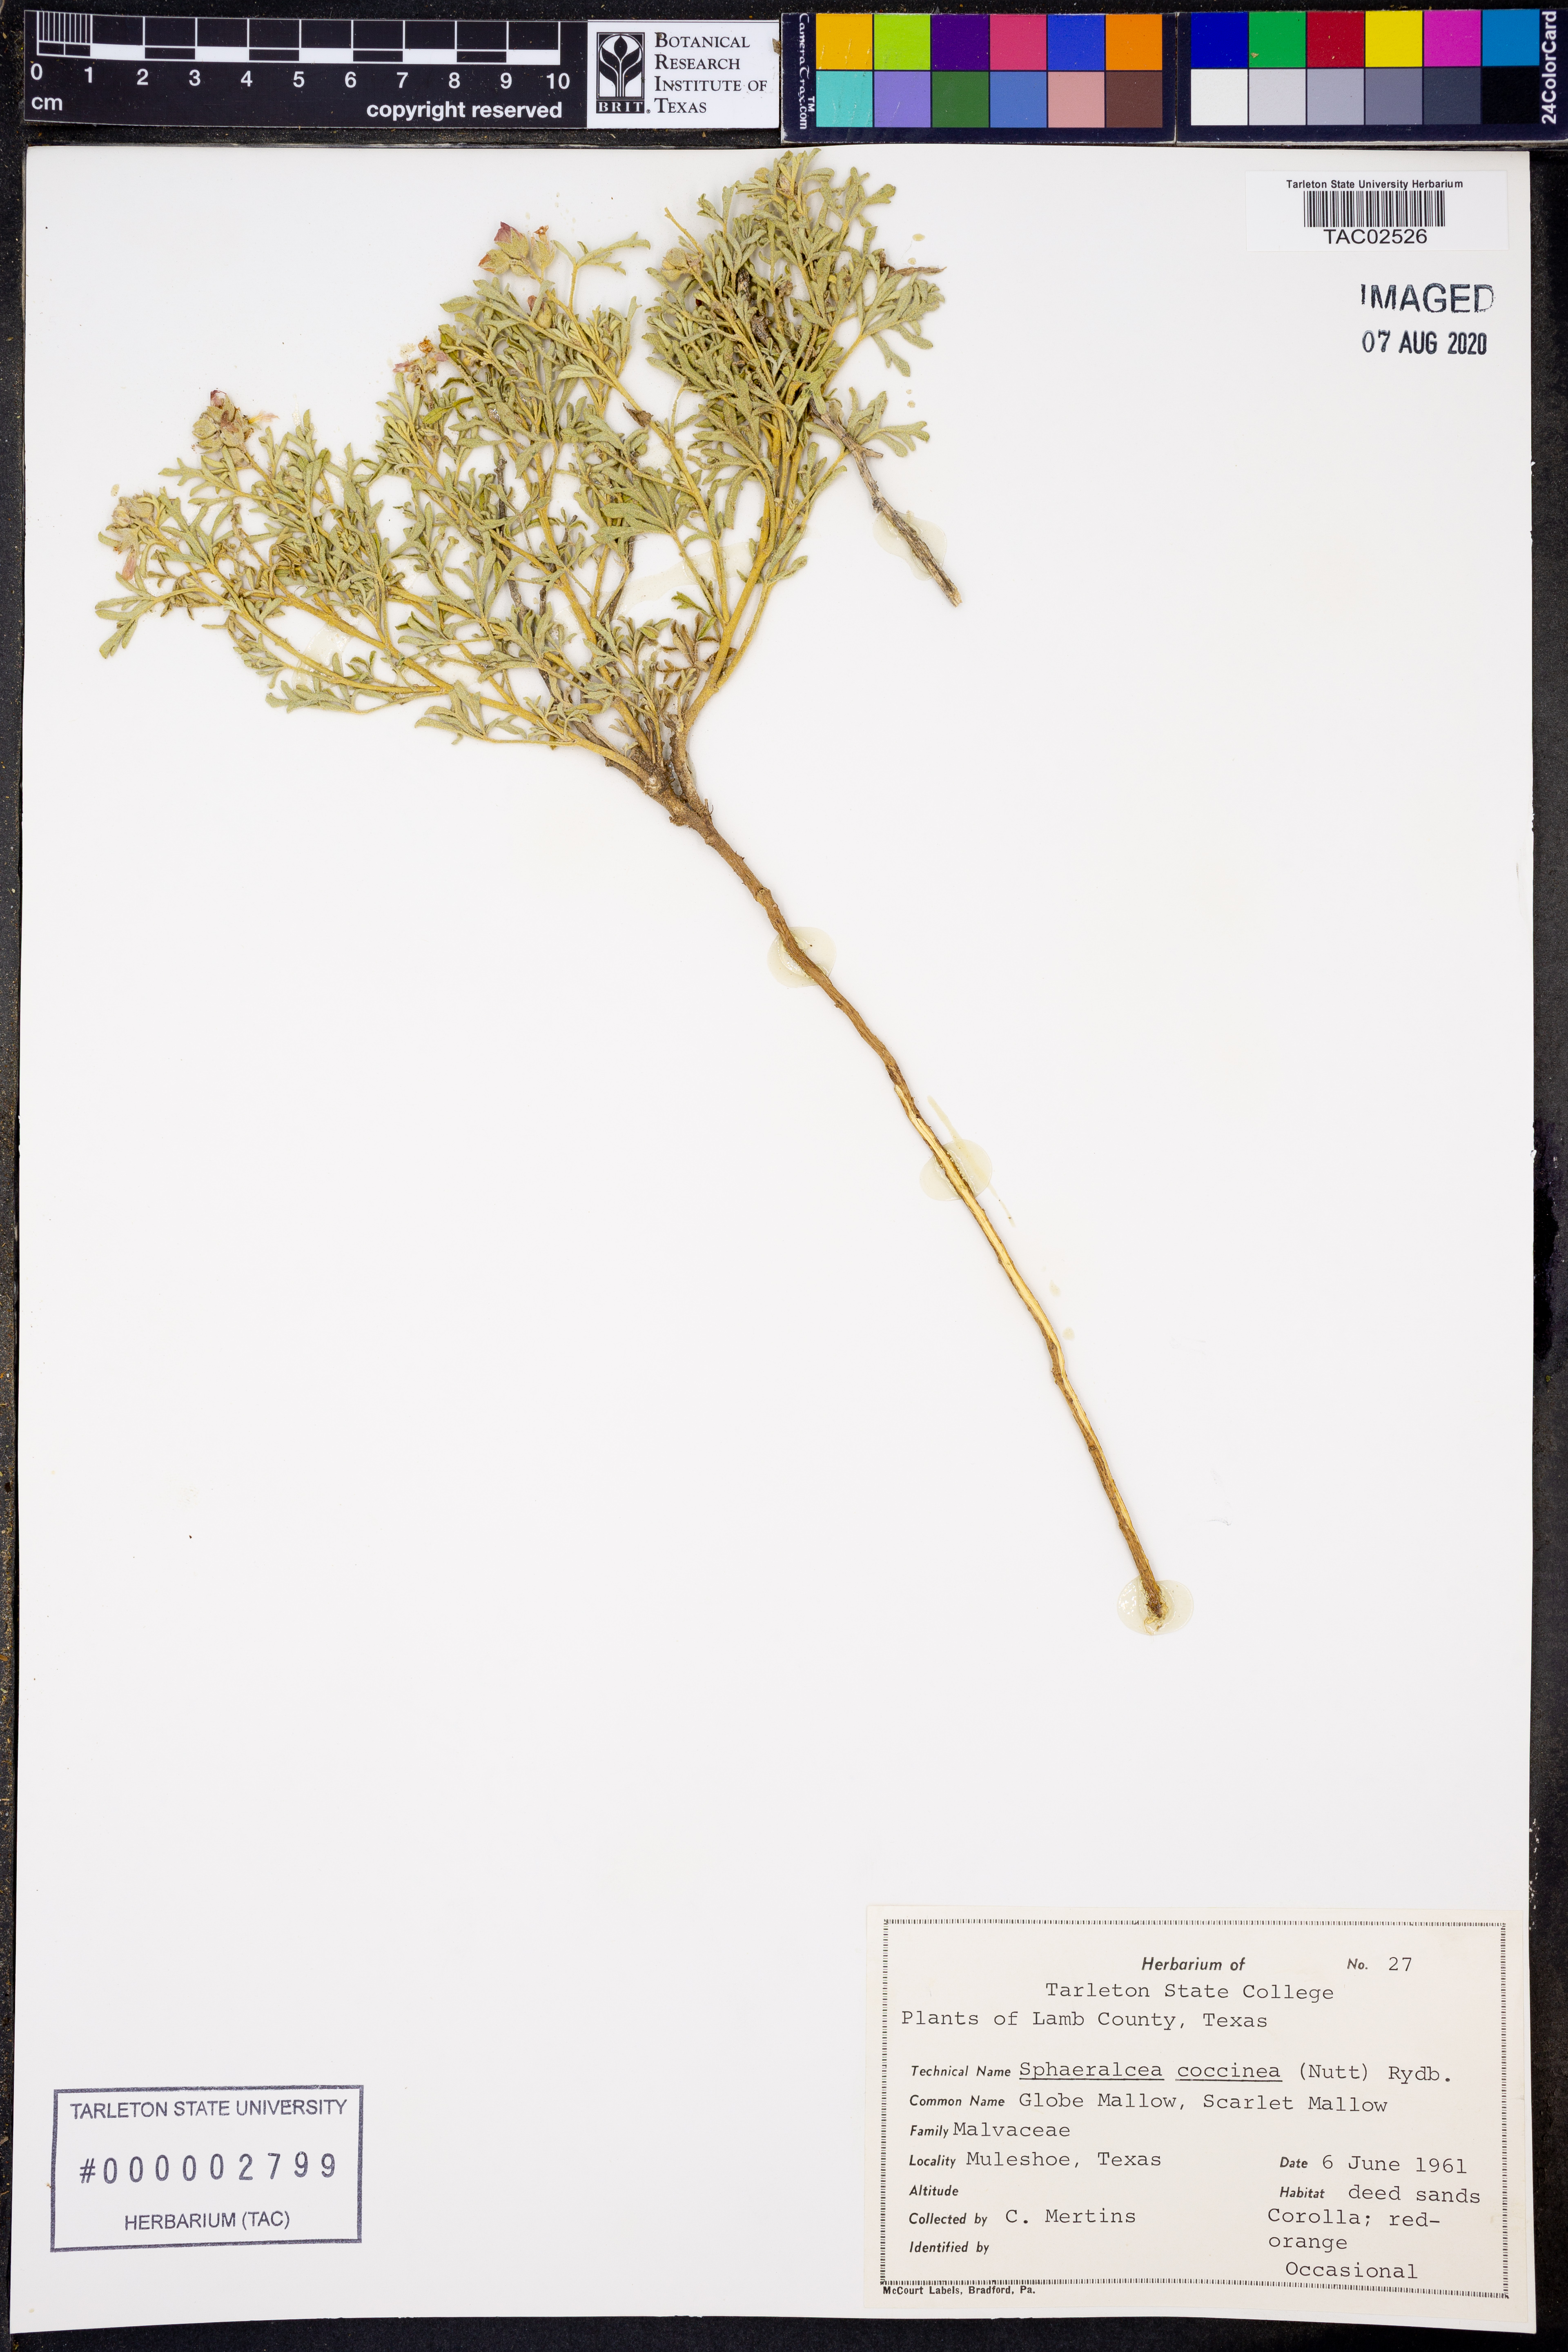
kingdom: Plantae
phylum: Tracheophyta
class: Magnoliopsida
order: Malvales
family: Malvaceae
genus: Sphaeralcea
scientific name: Sphaeralcea coccinea
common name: Moss-rose
